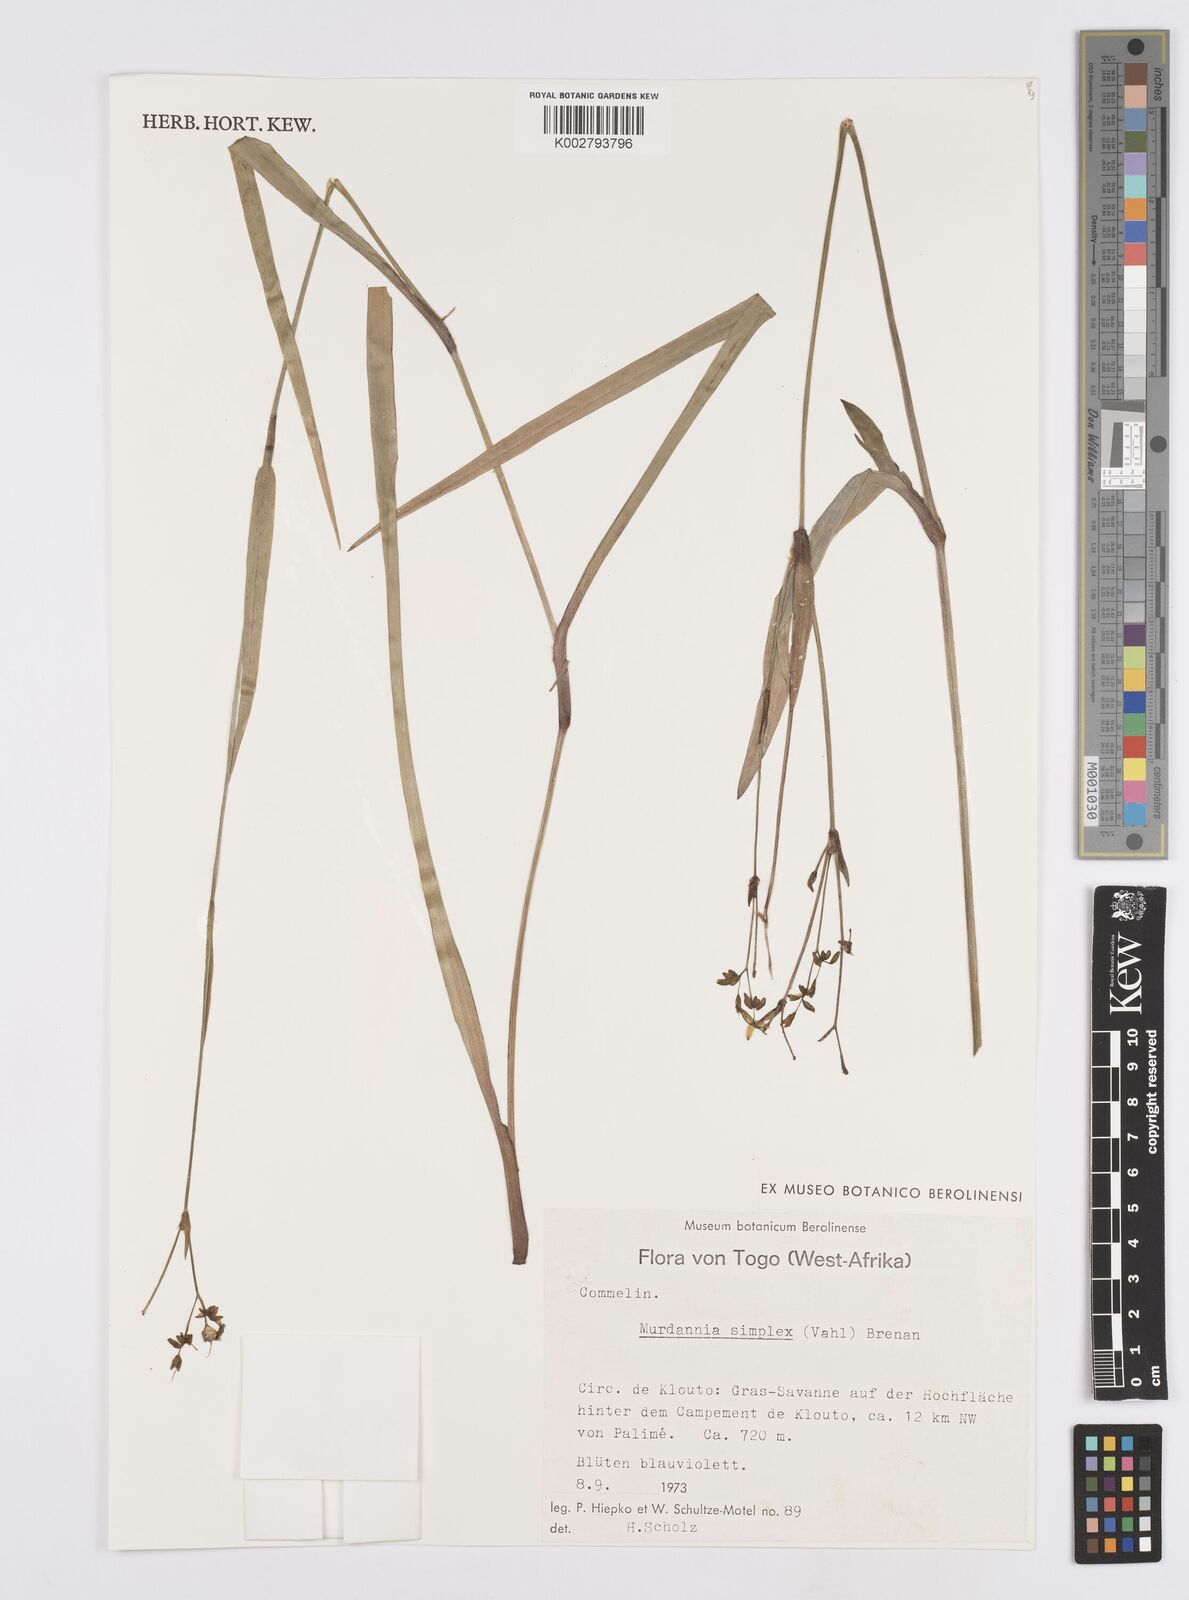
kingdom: Plantae
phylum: Tracheophyta
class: Liliopsida
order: Commelinales
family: Commelinaceae
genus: Murdannia
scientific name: Murdannia simplex
